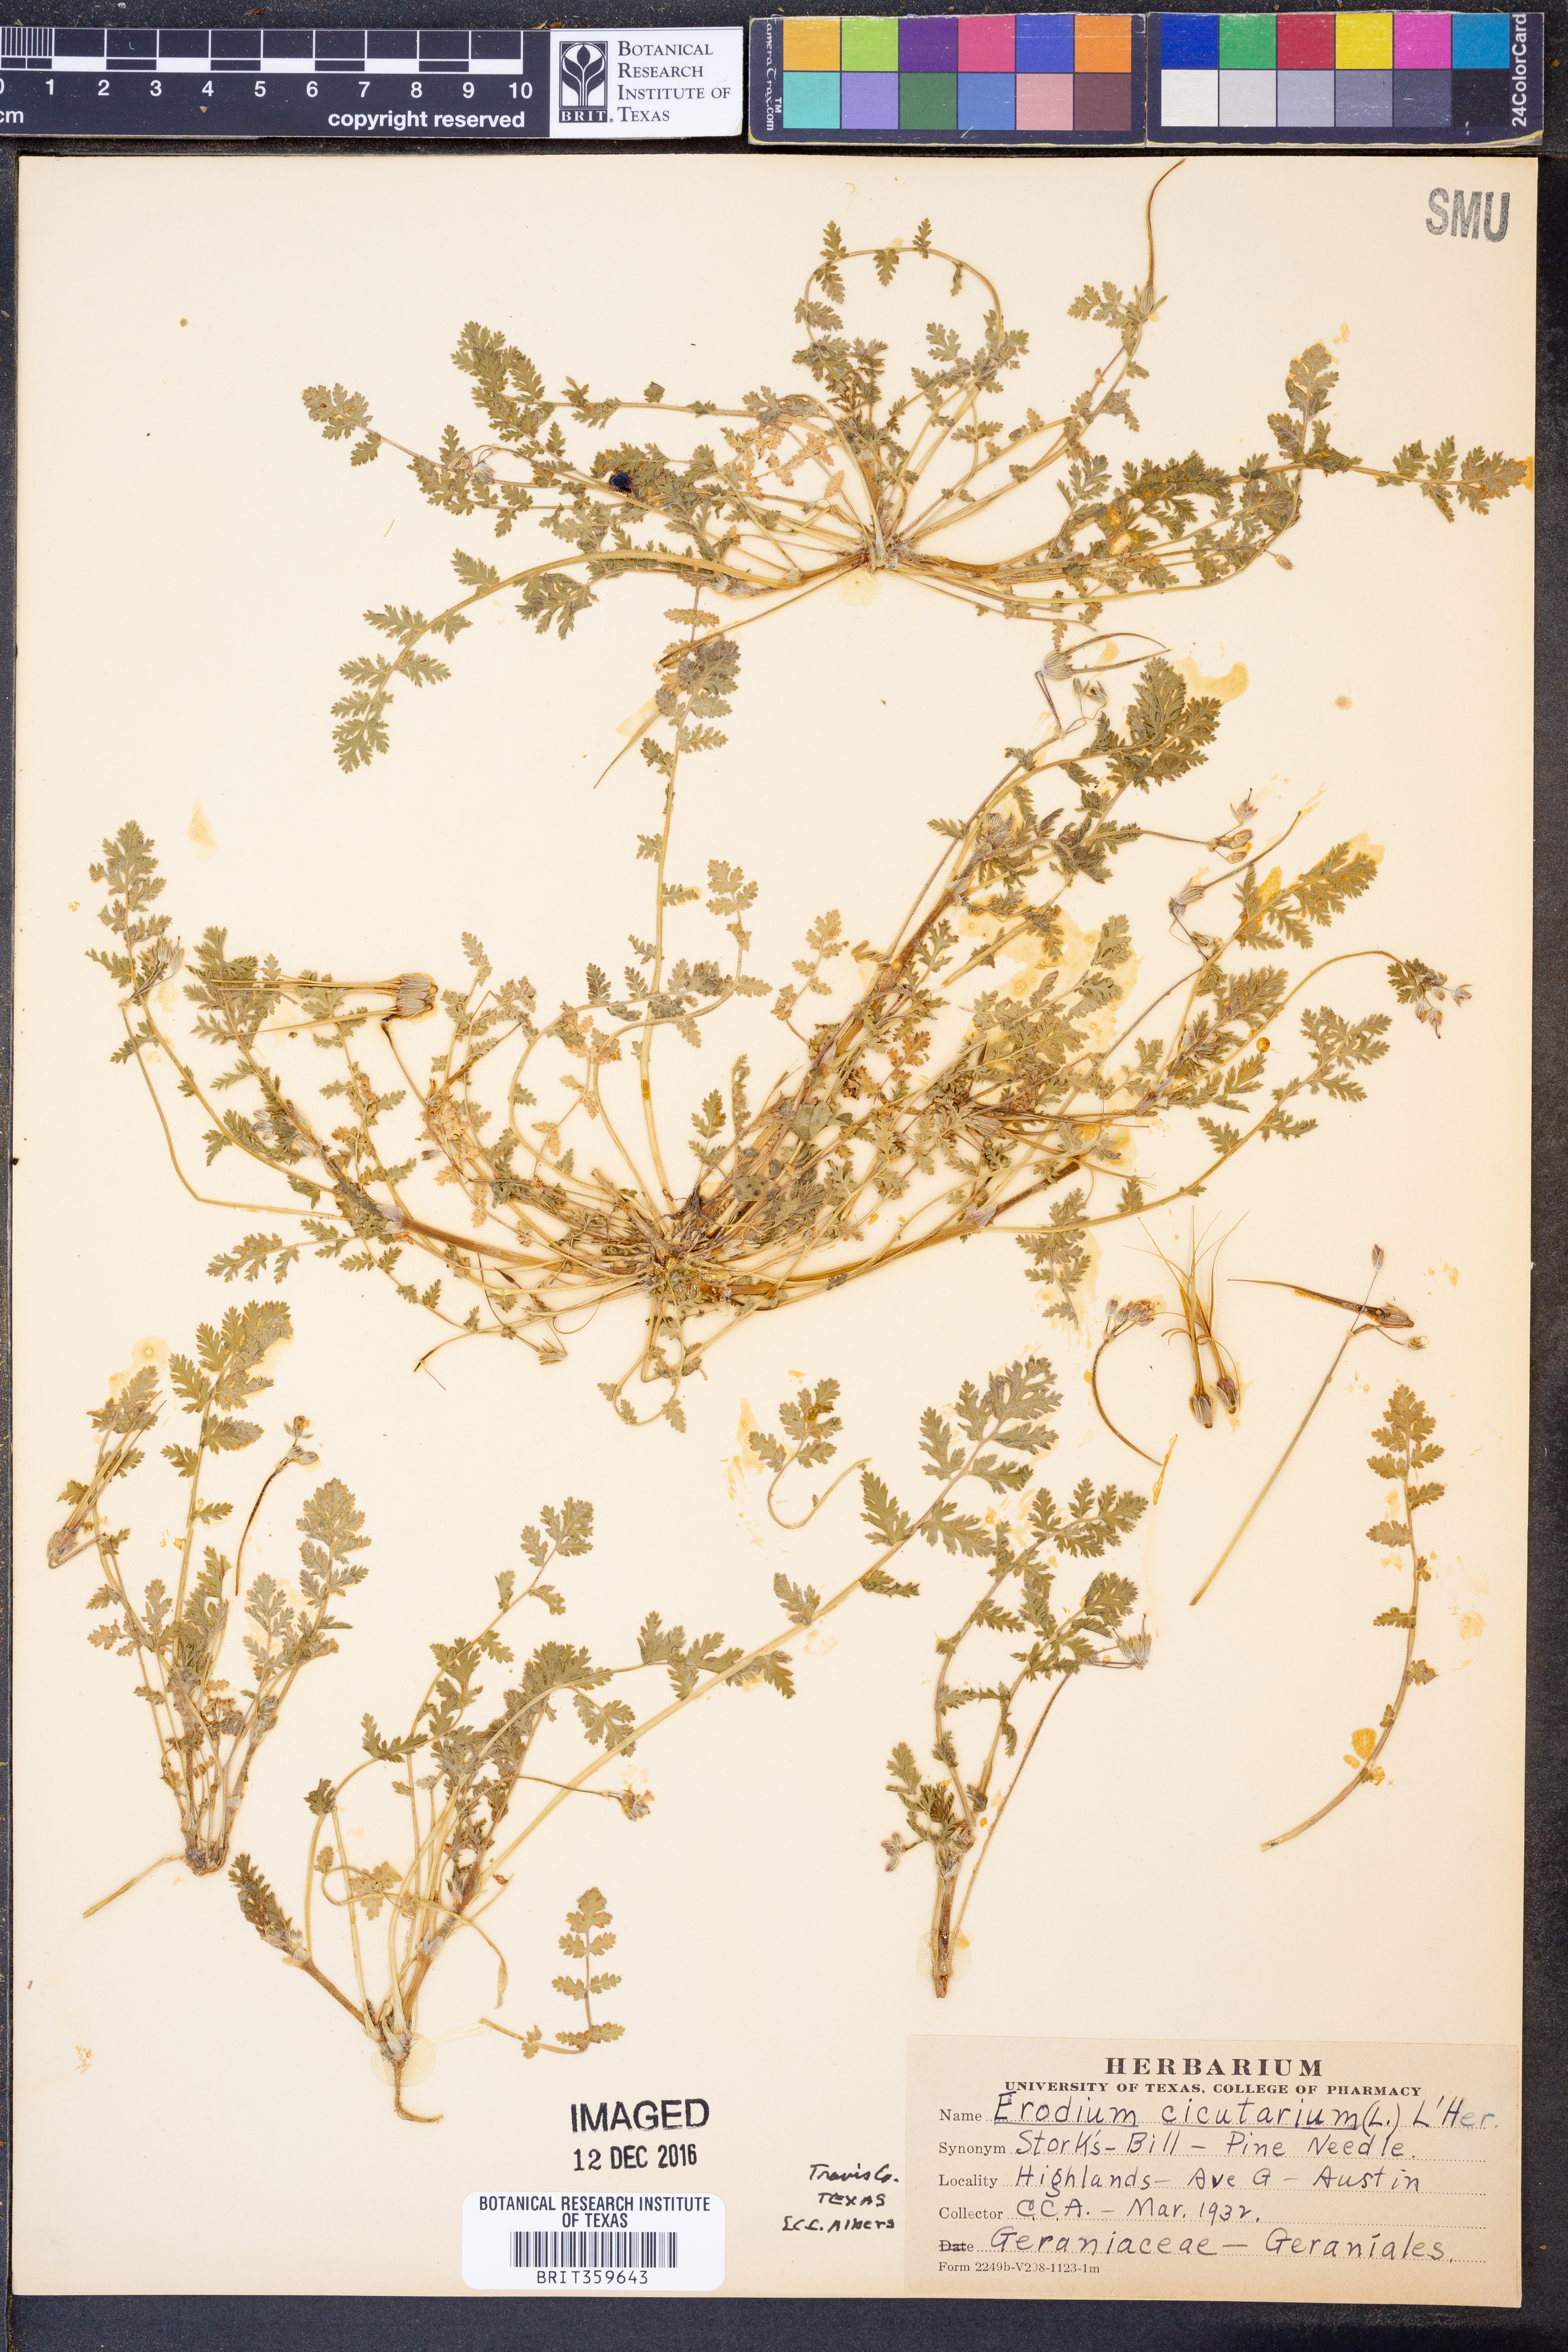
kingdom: Plantae
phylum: Tracheophyta
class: Magnoliopsida
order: Geraniales
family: Geraniaceae
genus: Erodium
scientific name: Erodium cicutarium
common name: Common stork's-bill
